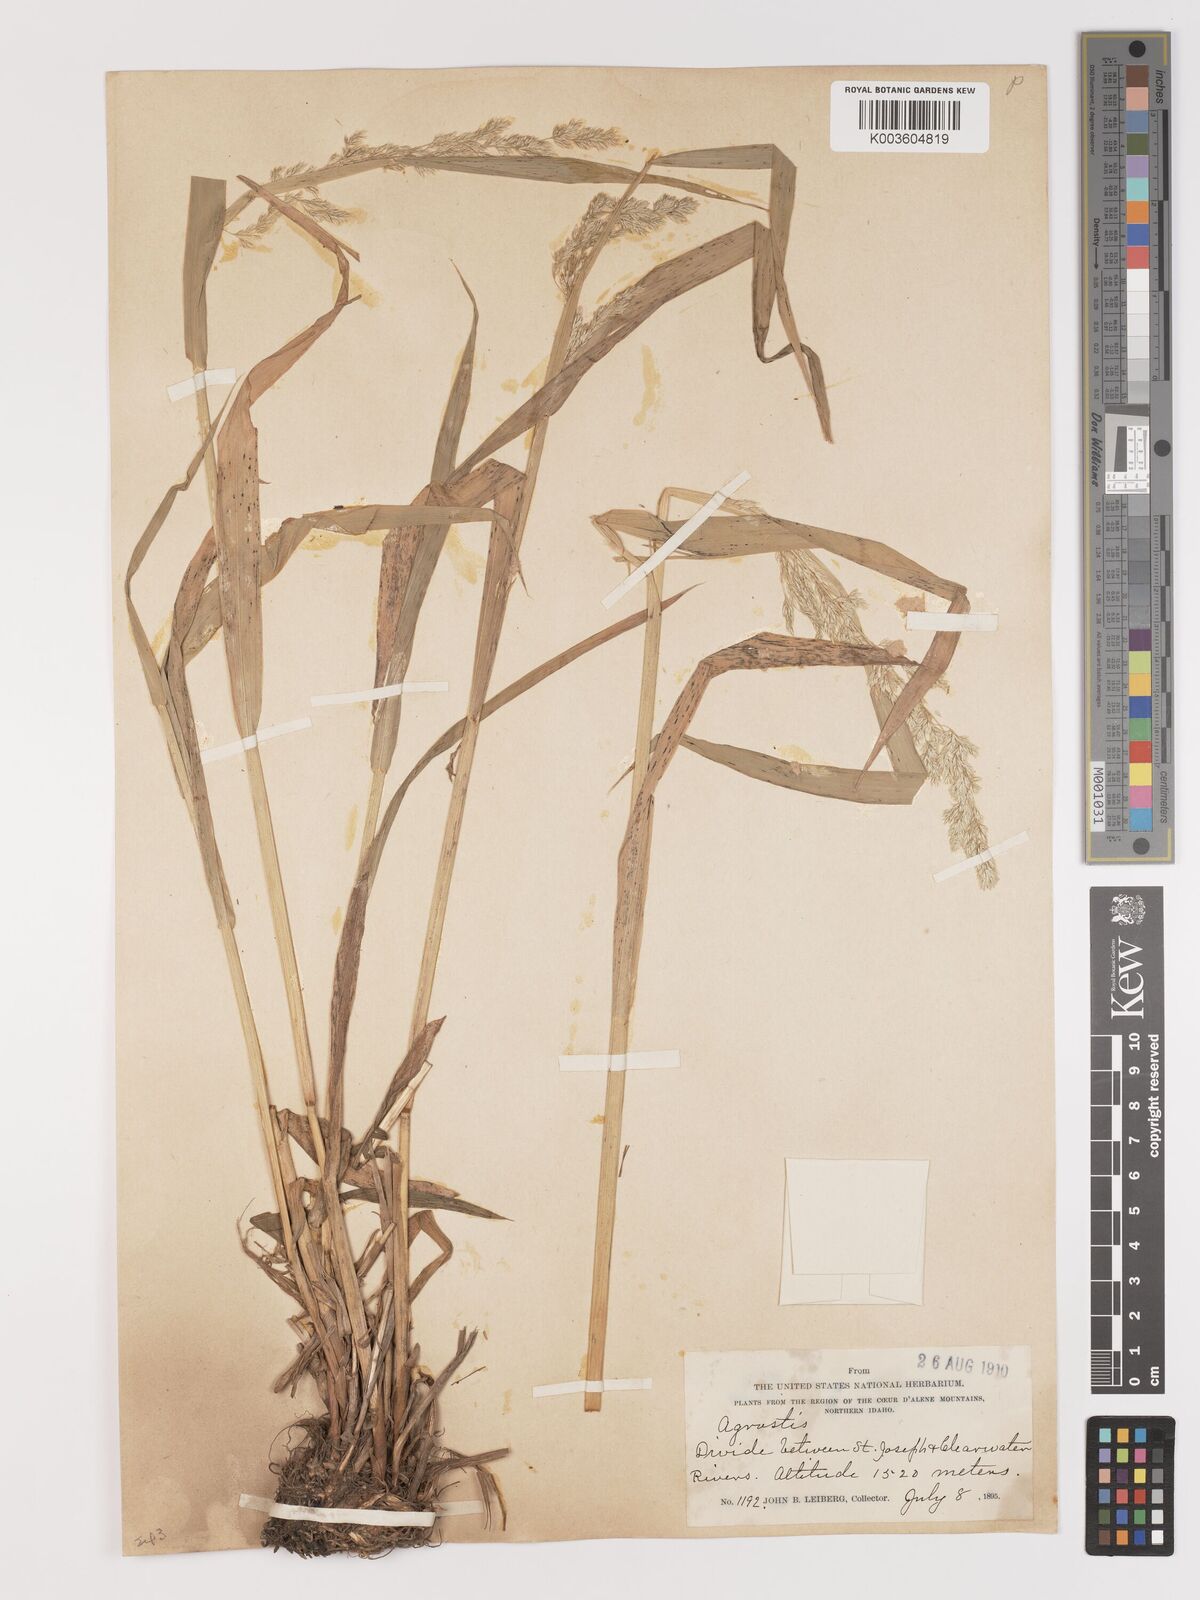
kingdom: Plantae
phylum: Tracheophyta
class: Liliopsida
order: Poales
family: Poaceae
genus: Agrostis
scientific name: Agrostis
